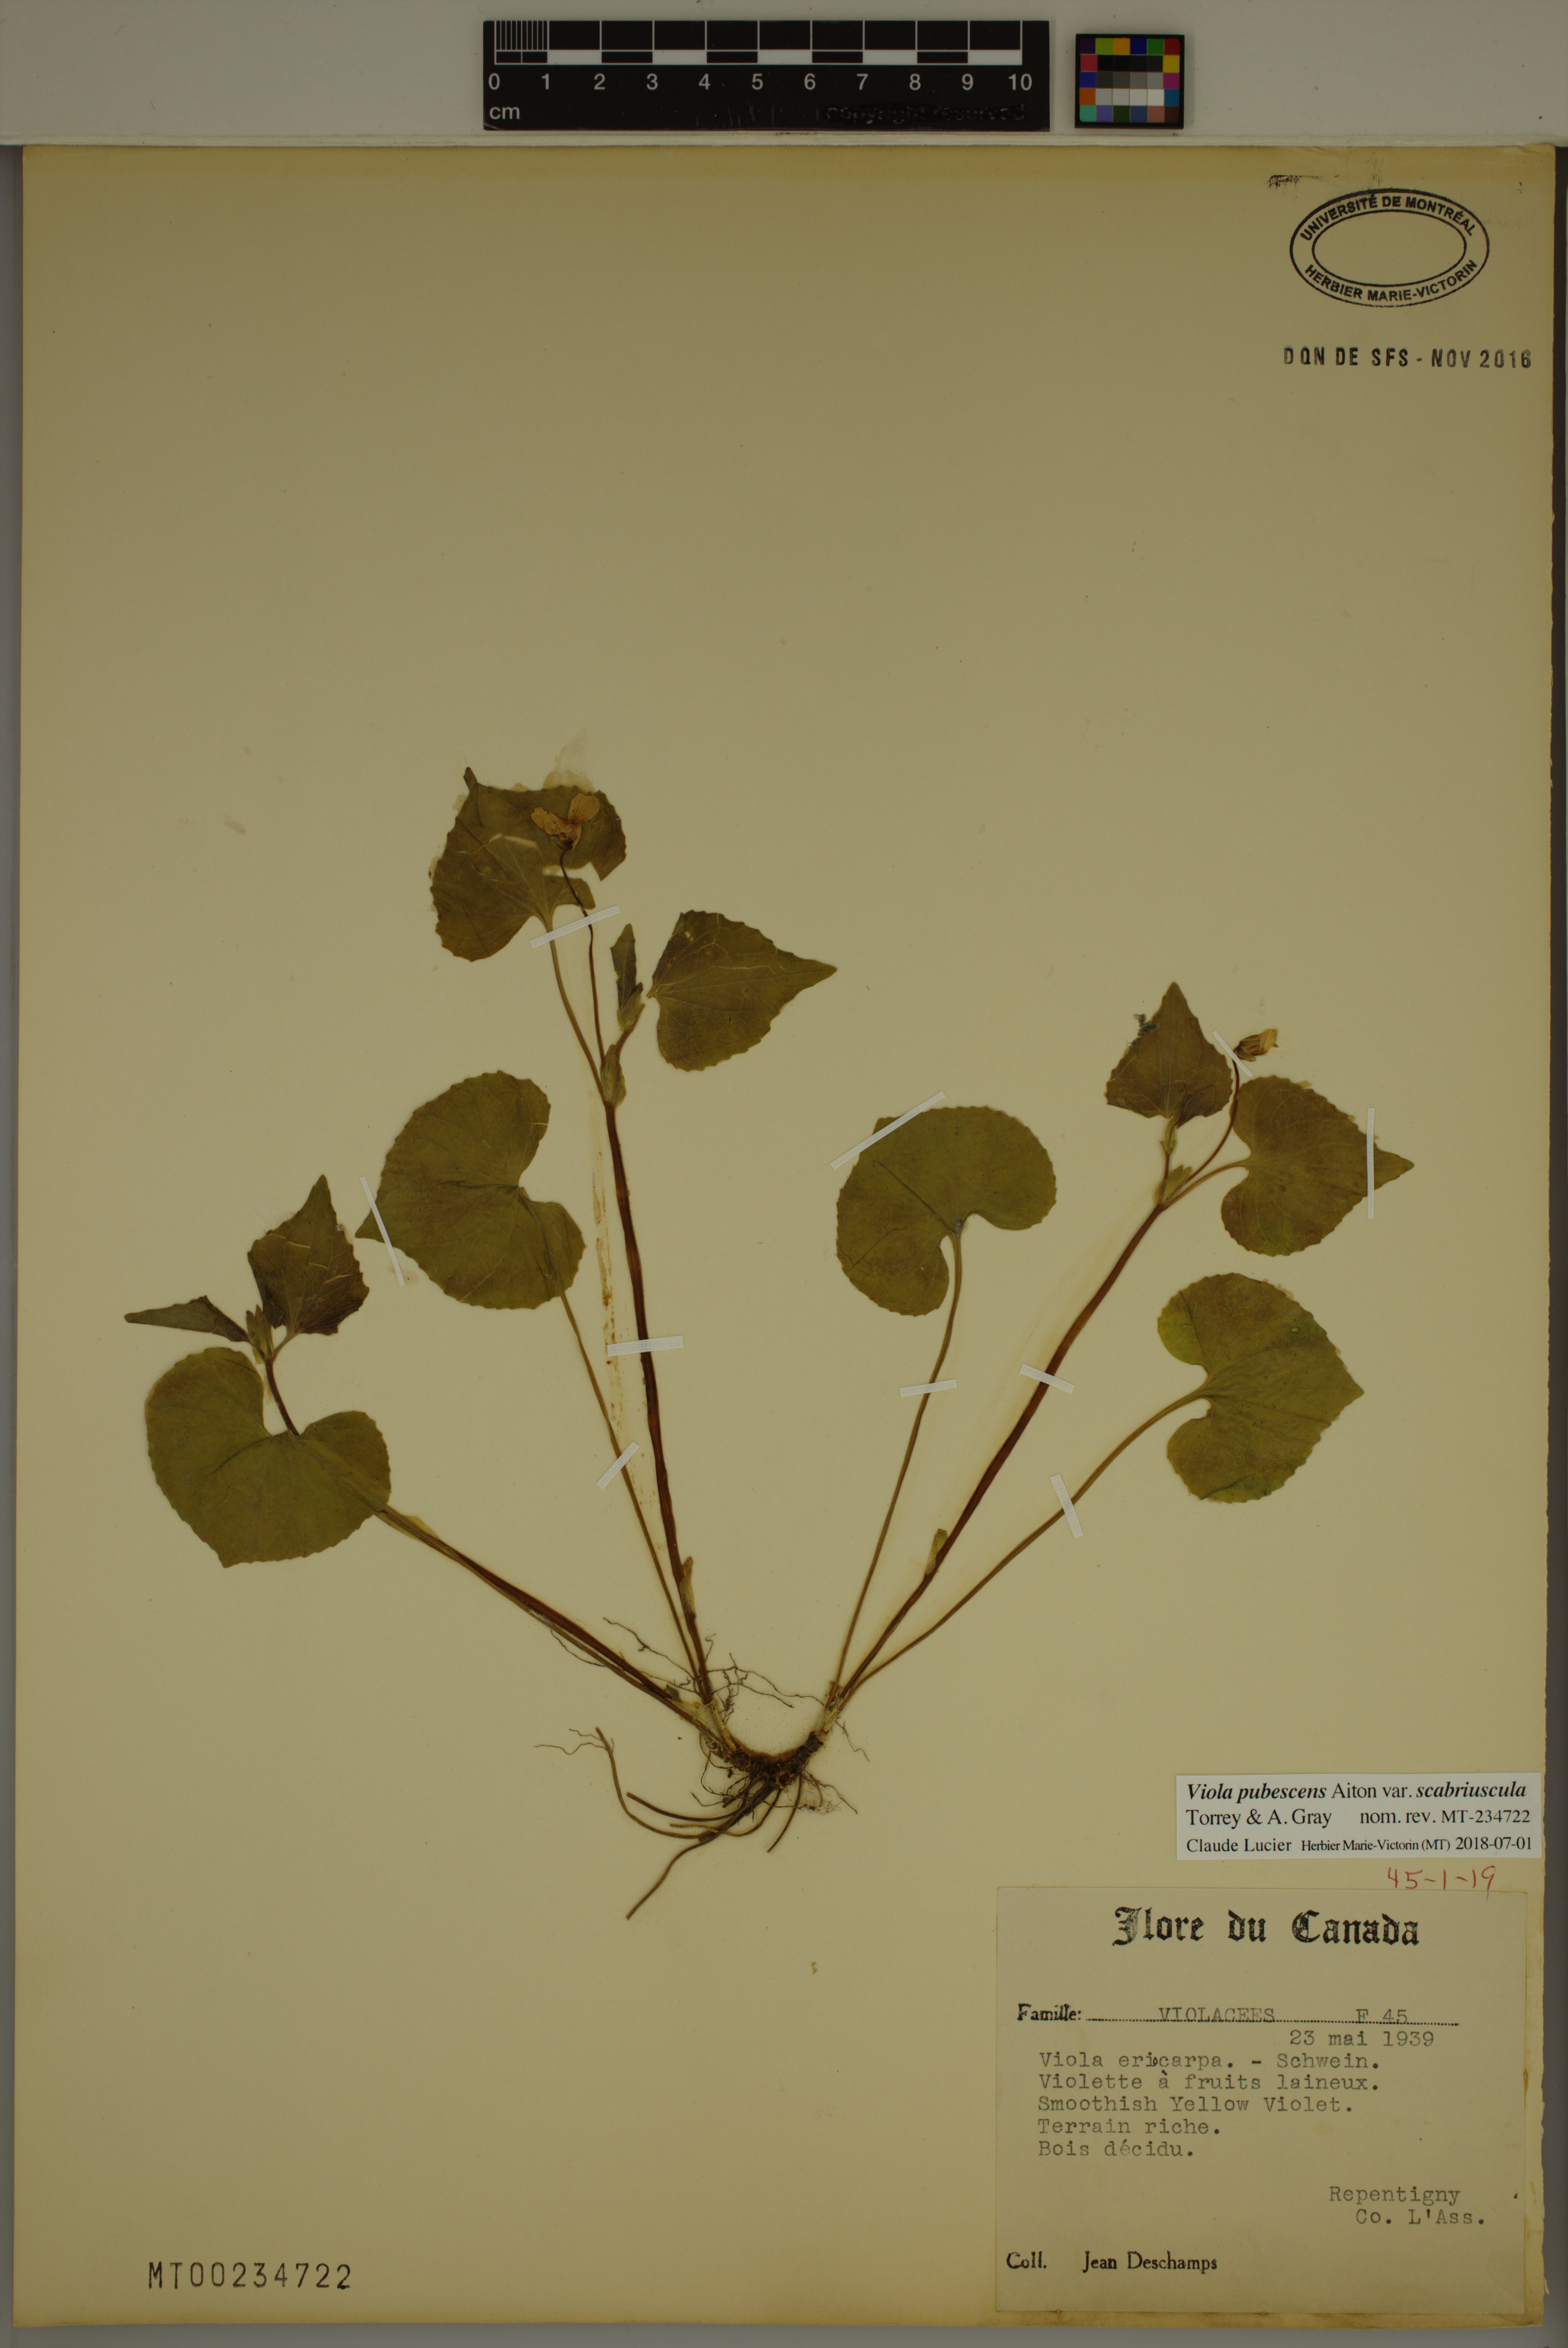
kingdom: Plantae
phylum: Tracheophyta
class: Magnoliopsida
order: Malpighiales
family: Violaceae
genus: Viola
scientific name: Viola eriocarpa
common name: Smooth yellow violet
